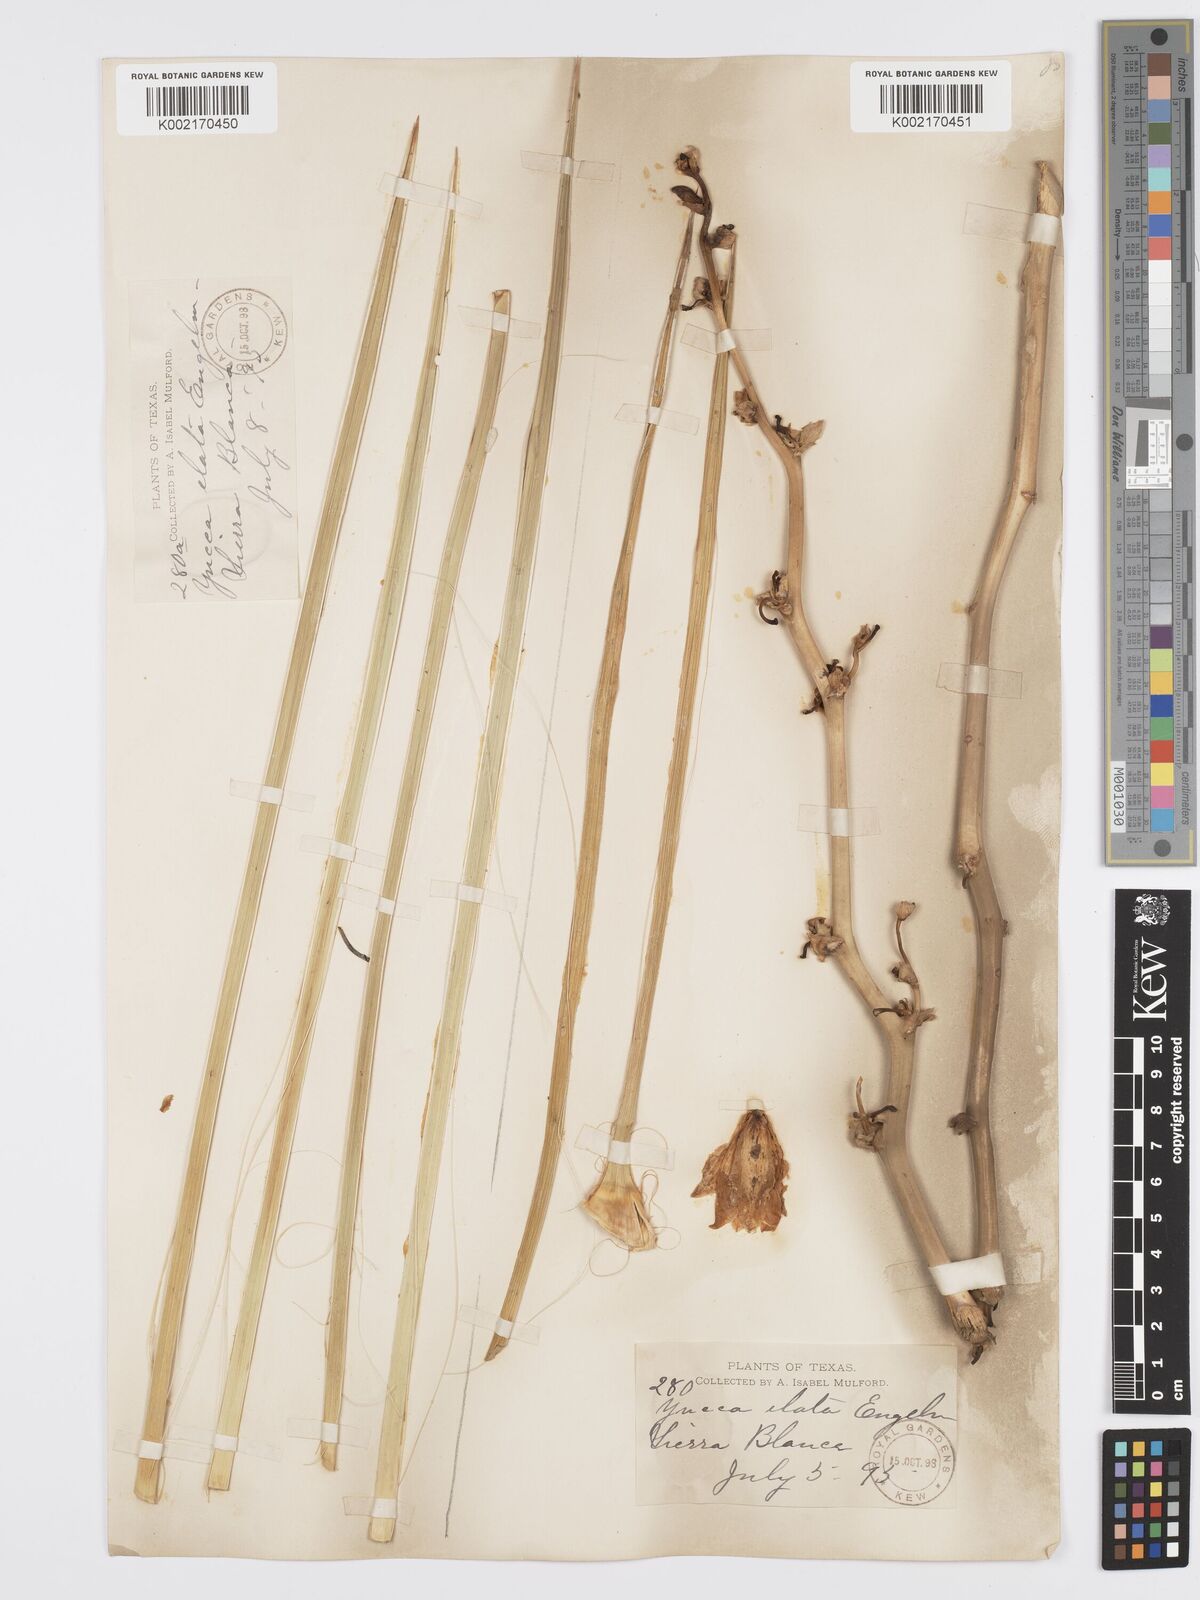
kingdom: Plantae
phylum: Tracheophyta
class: Liliopsida
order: Asparagales
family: Asparagaceae
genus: Yucca
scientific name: Yucca elata
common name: Palmella
